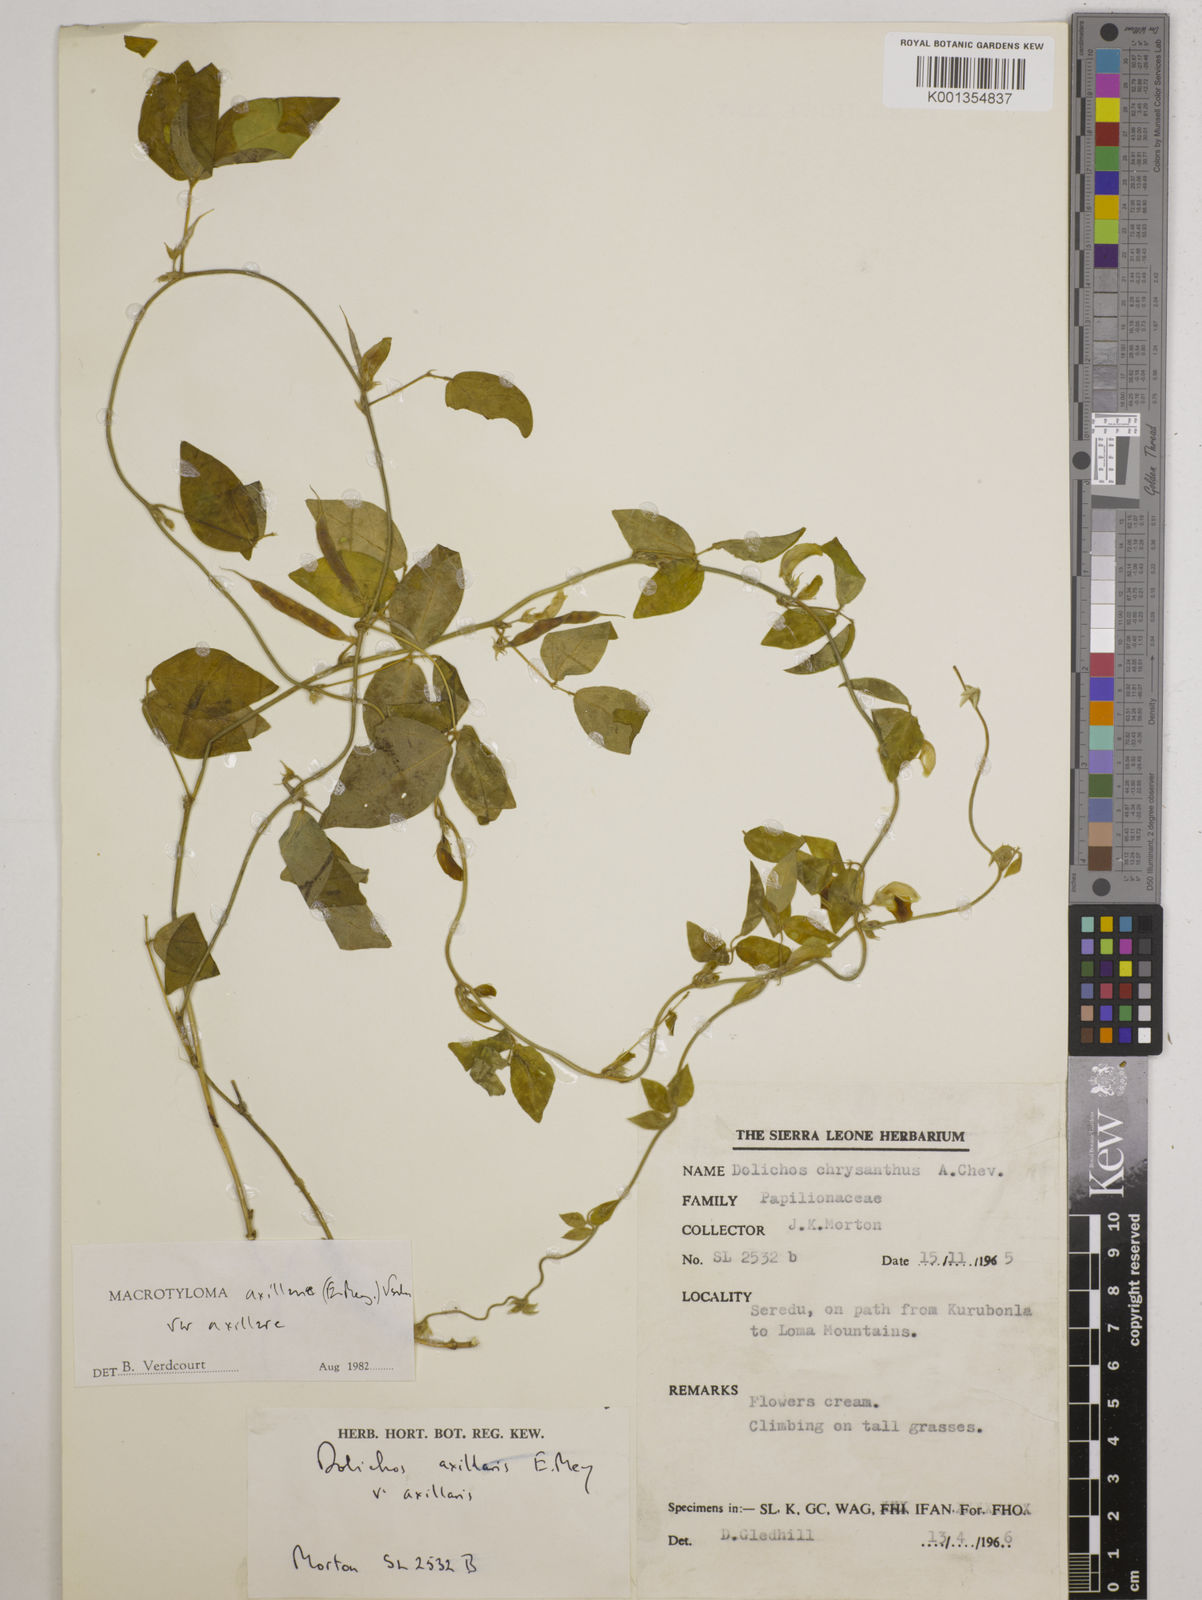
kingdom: Plantae
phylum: Tracheophyta
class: Magnoliopsida
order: Fabales
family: Fabaceae
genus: Macrotyloma
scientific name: Macrotyloma axillare
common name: Perennial horsegram
